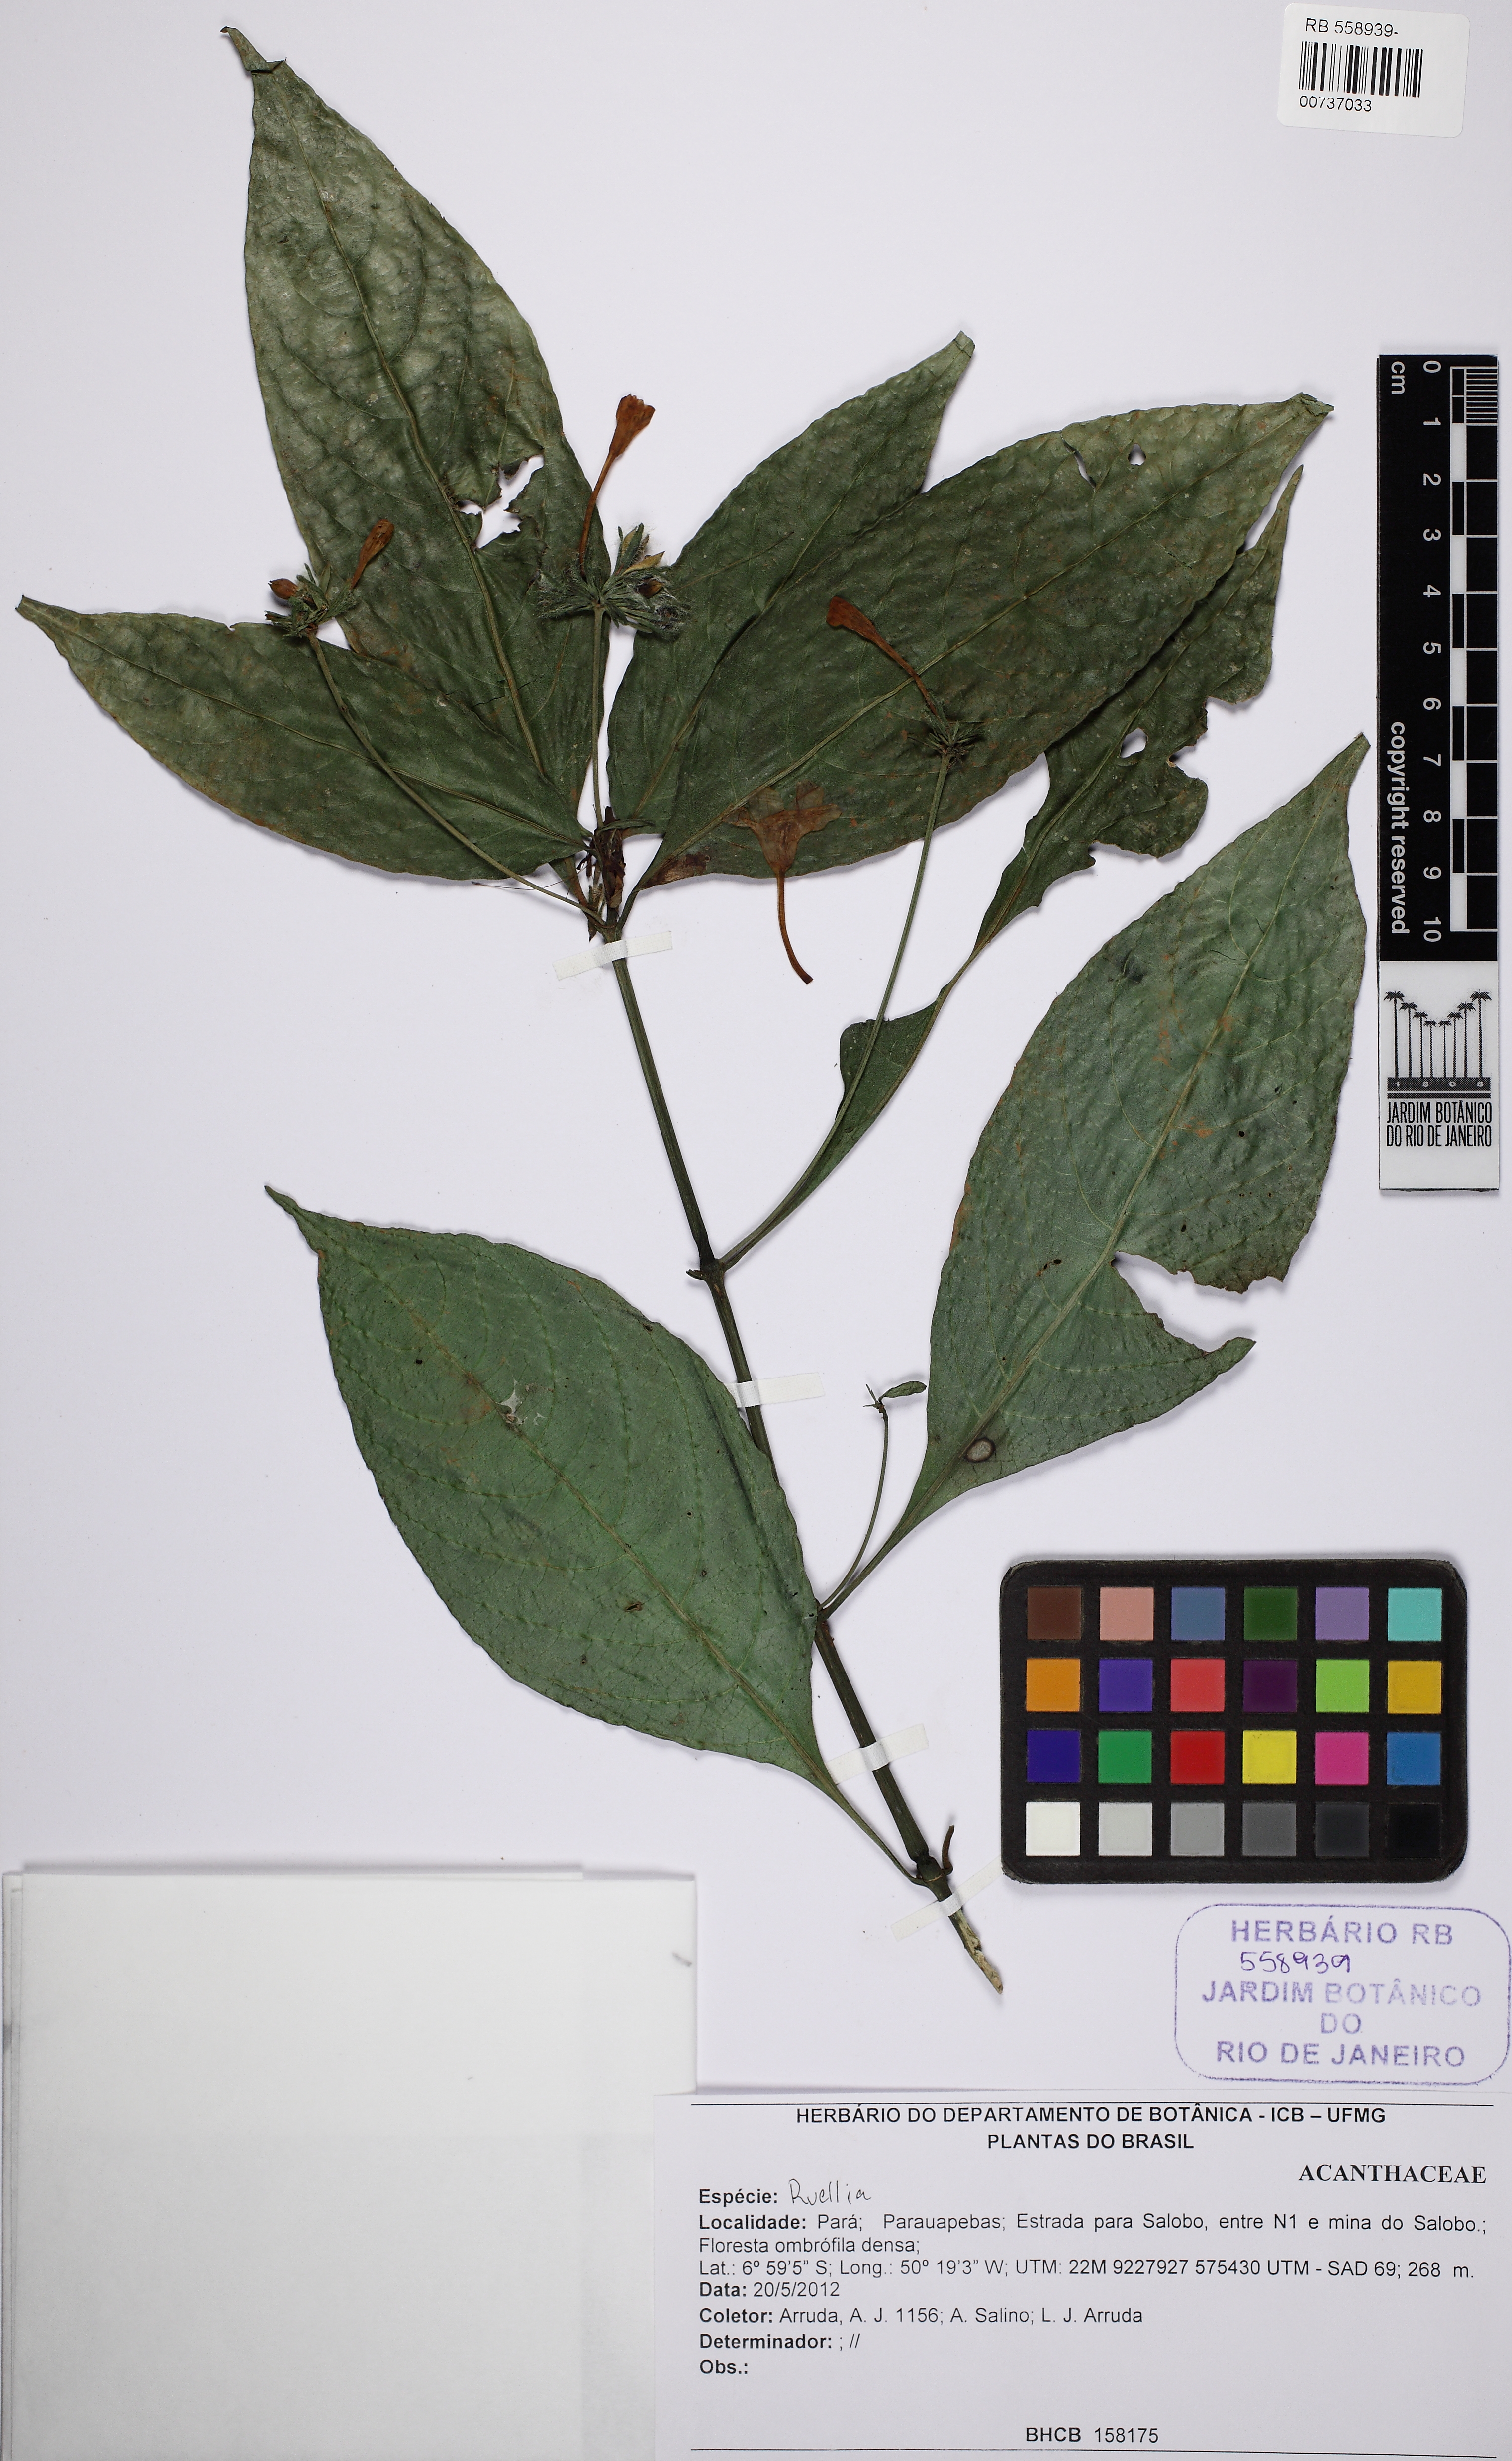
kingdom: Plantae
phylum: Tracheophyta
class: Magnoliopsida
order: Lamiales
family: Acanthaceae
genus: Ruellia
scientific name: Ruellia
